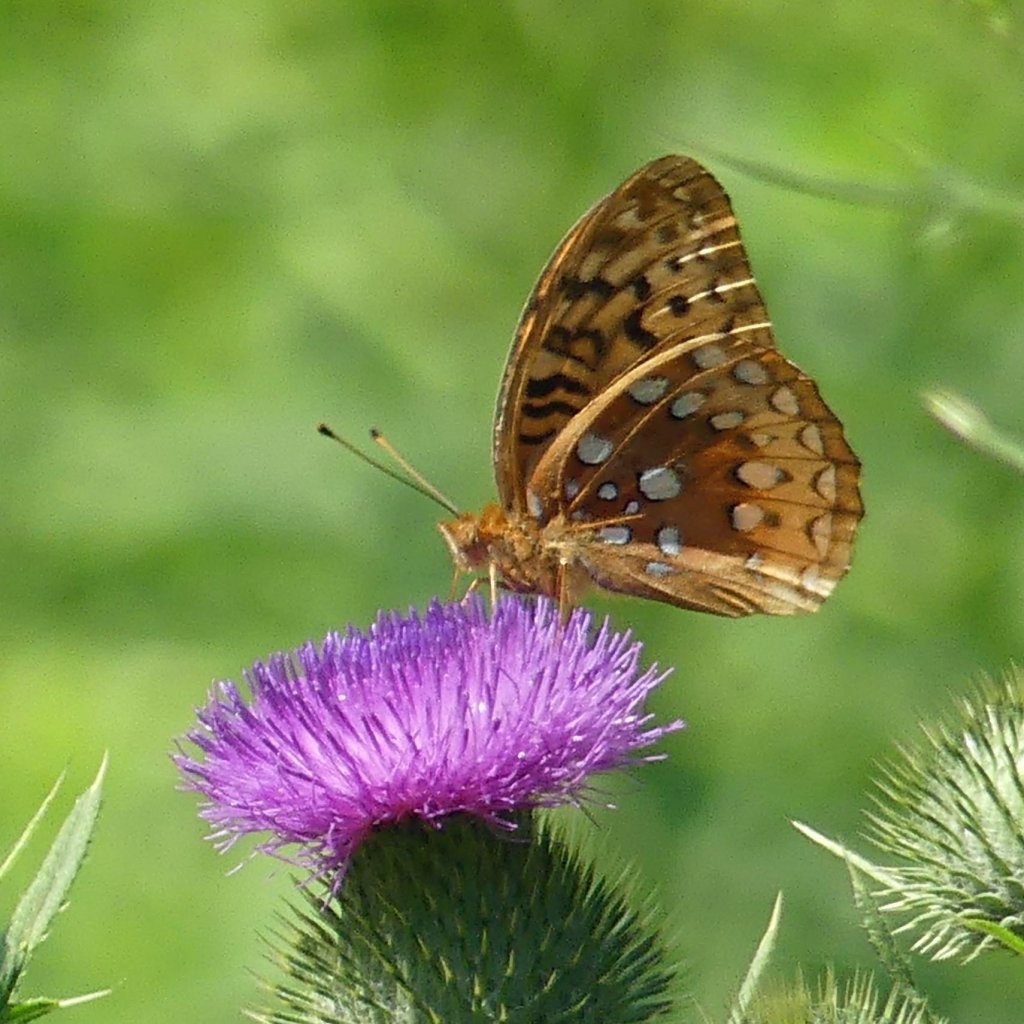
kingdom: Animalia
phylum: Arthropoda
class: Insecta
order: Lepidoptera
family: Nymphalidae
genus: Speyeria
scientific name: Speyeria cybele
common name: Great Spangled Fritillary
